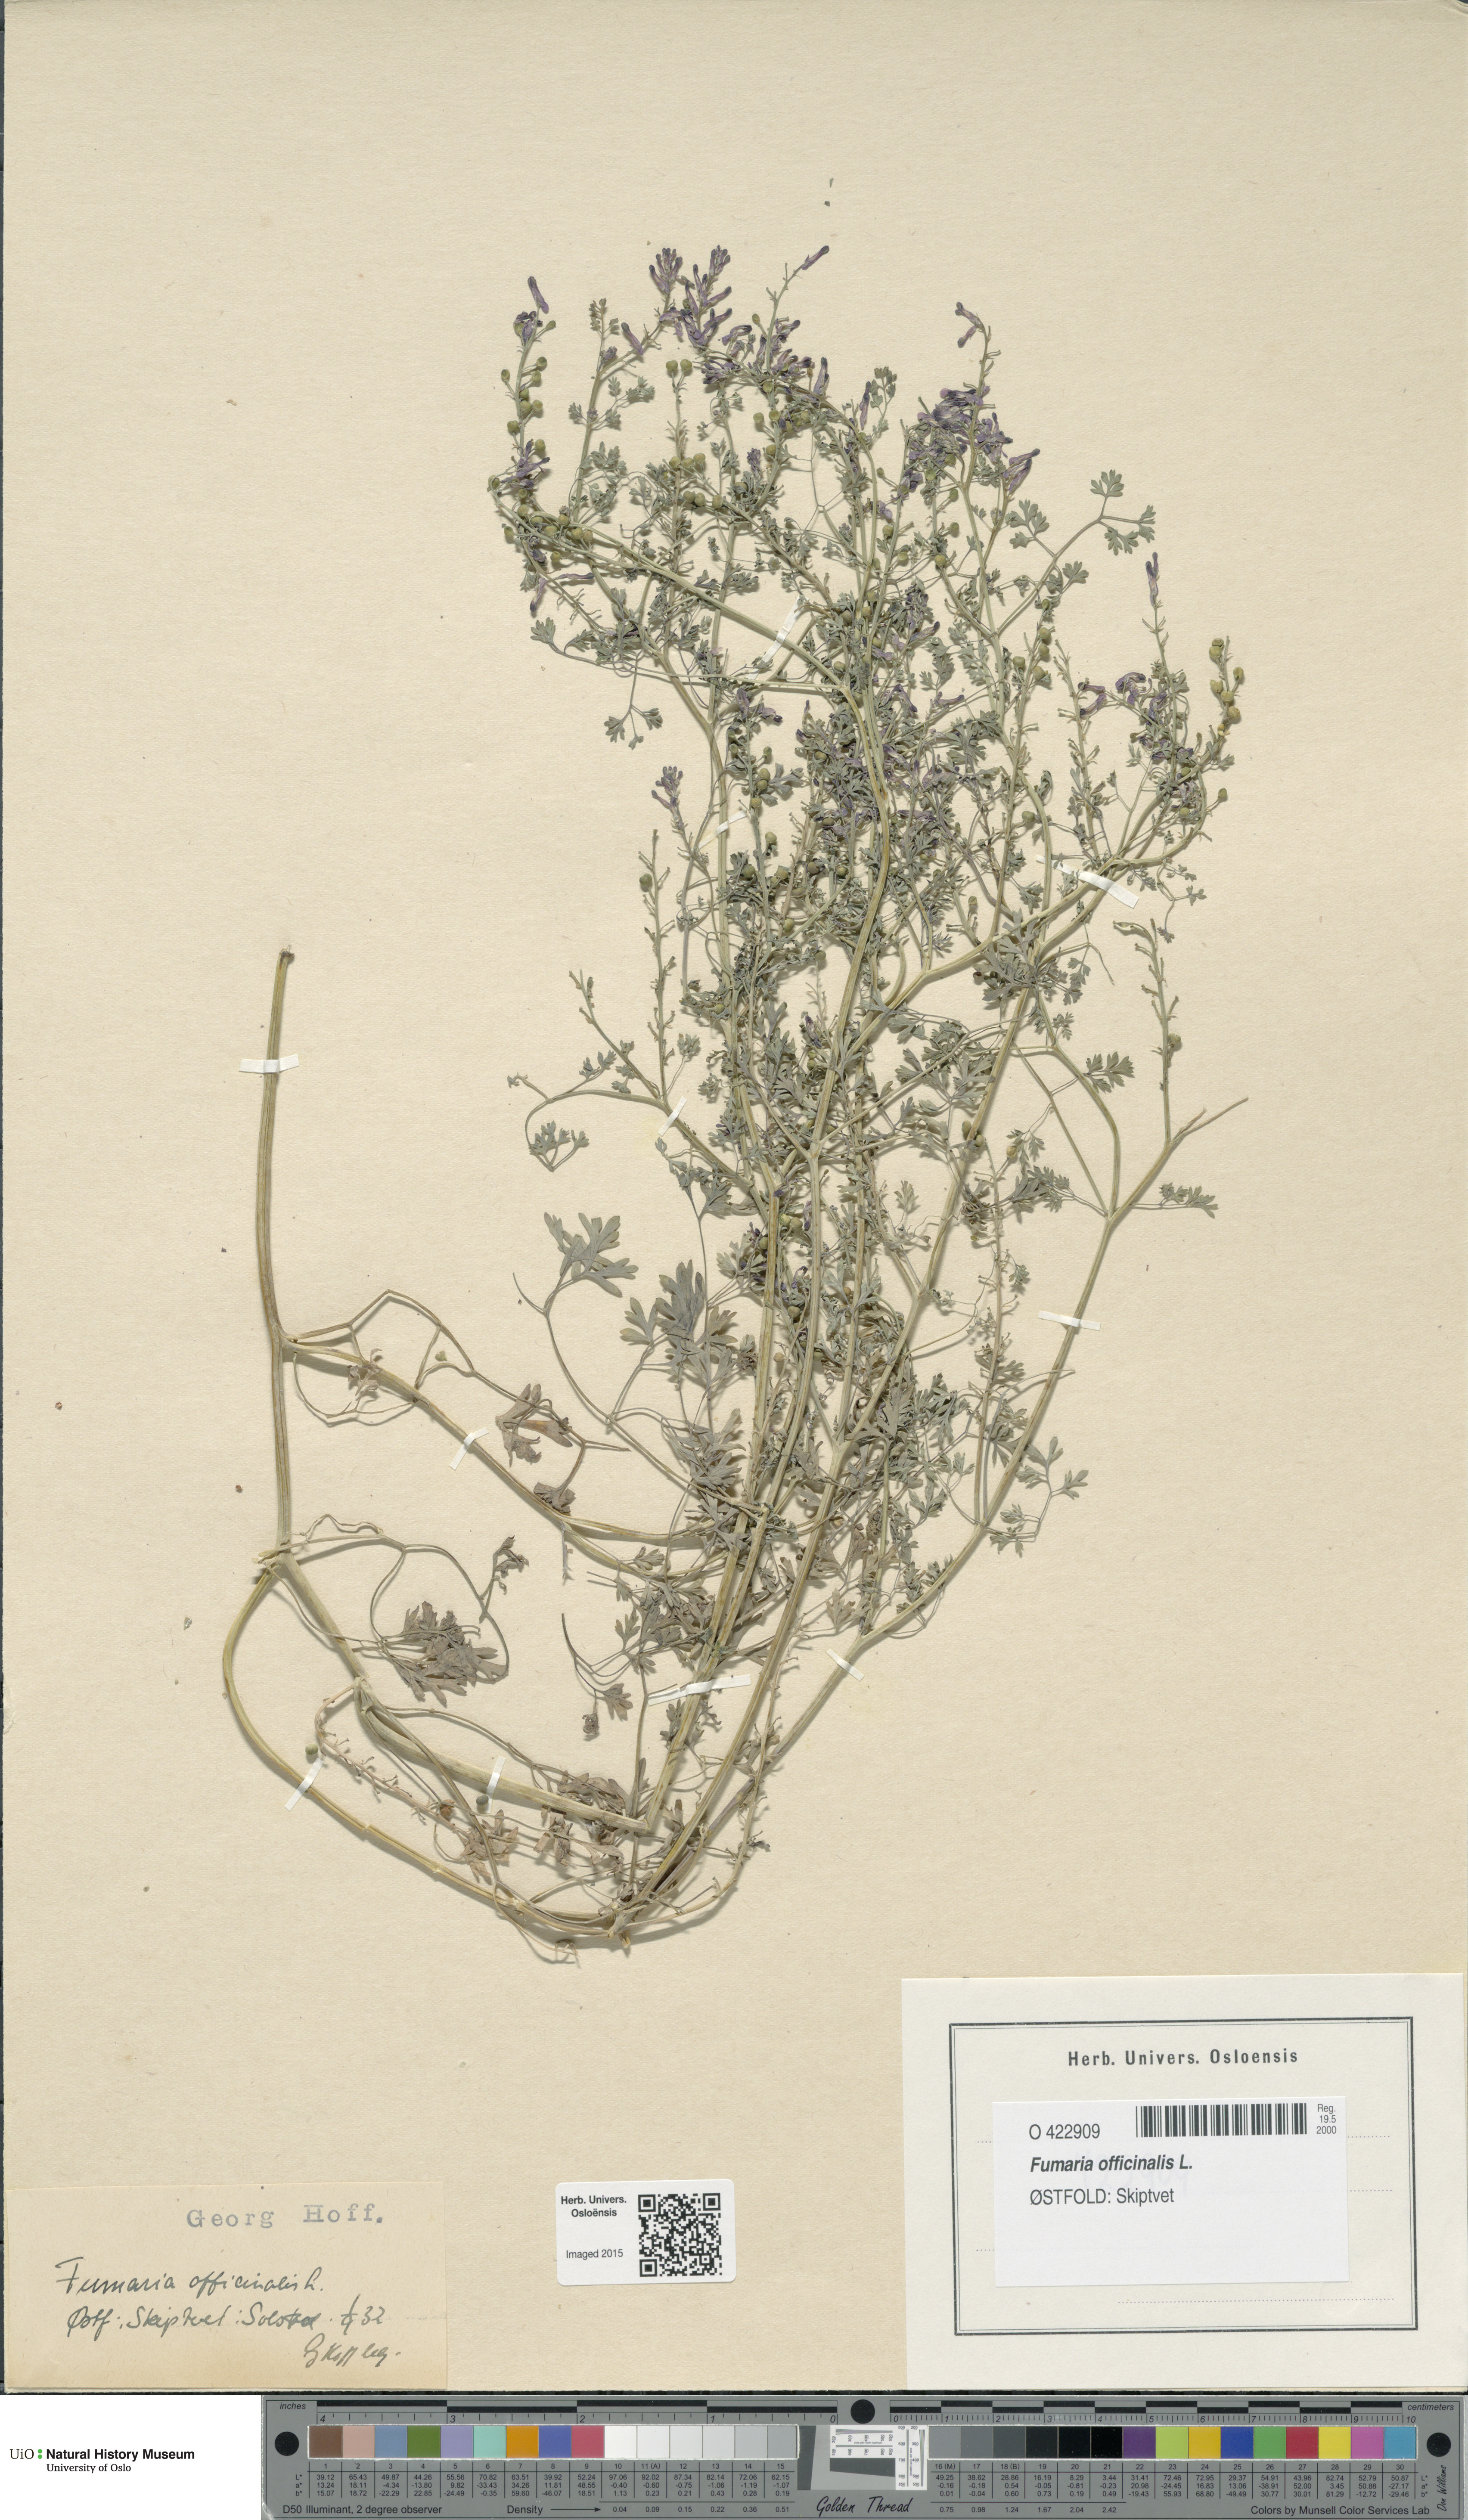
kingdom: Plantae
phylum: Tracheophyta
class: Magnoliopsida
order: Ranunculales
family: Papaveraceae
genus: Fumaria
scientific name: Fumaria officinalis
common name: Common fumitory
